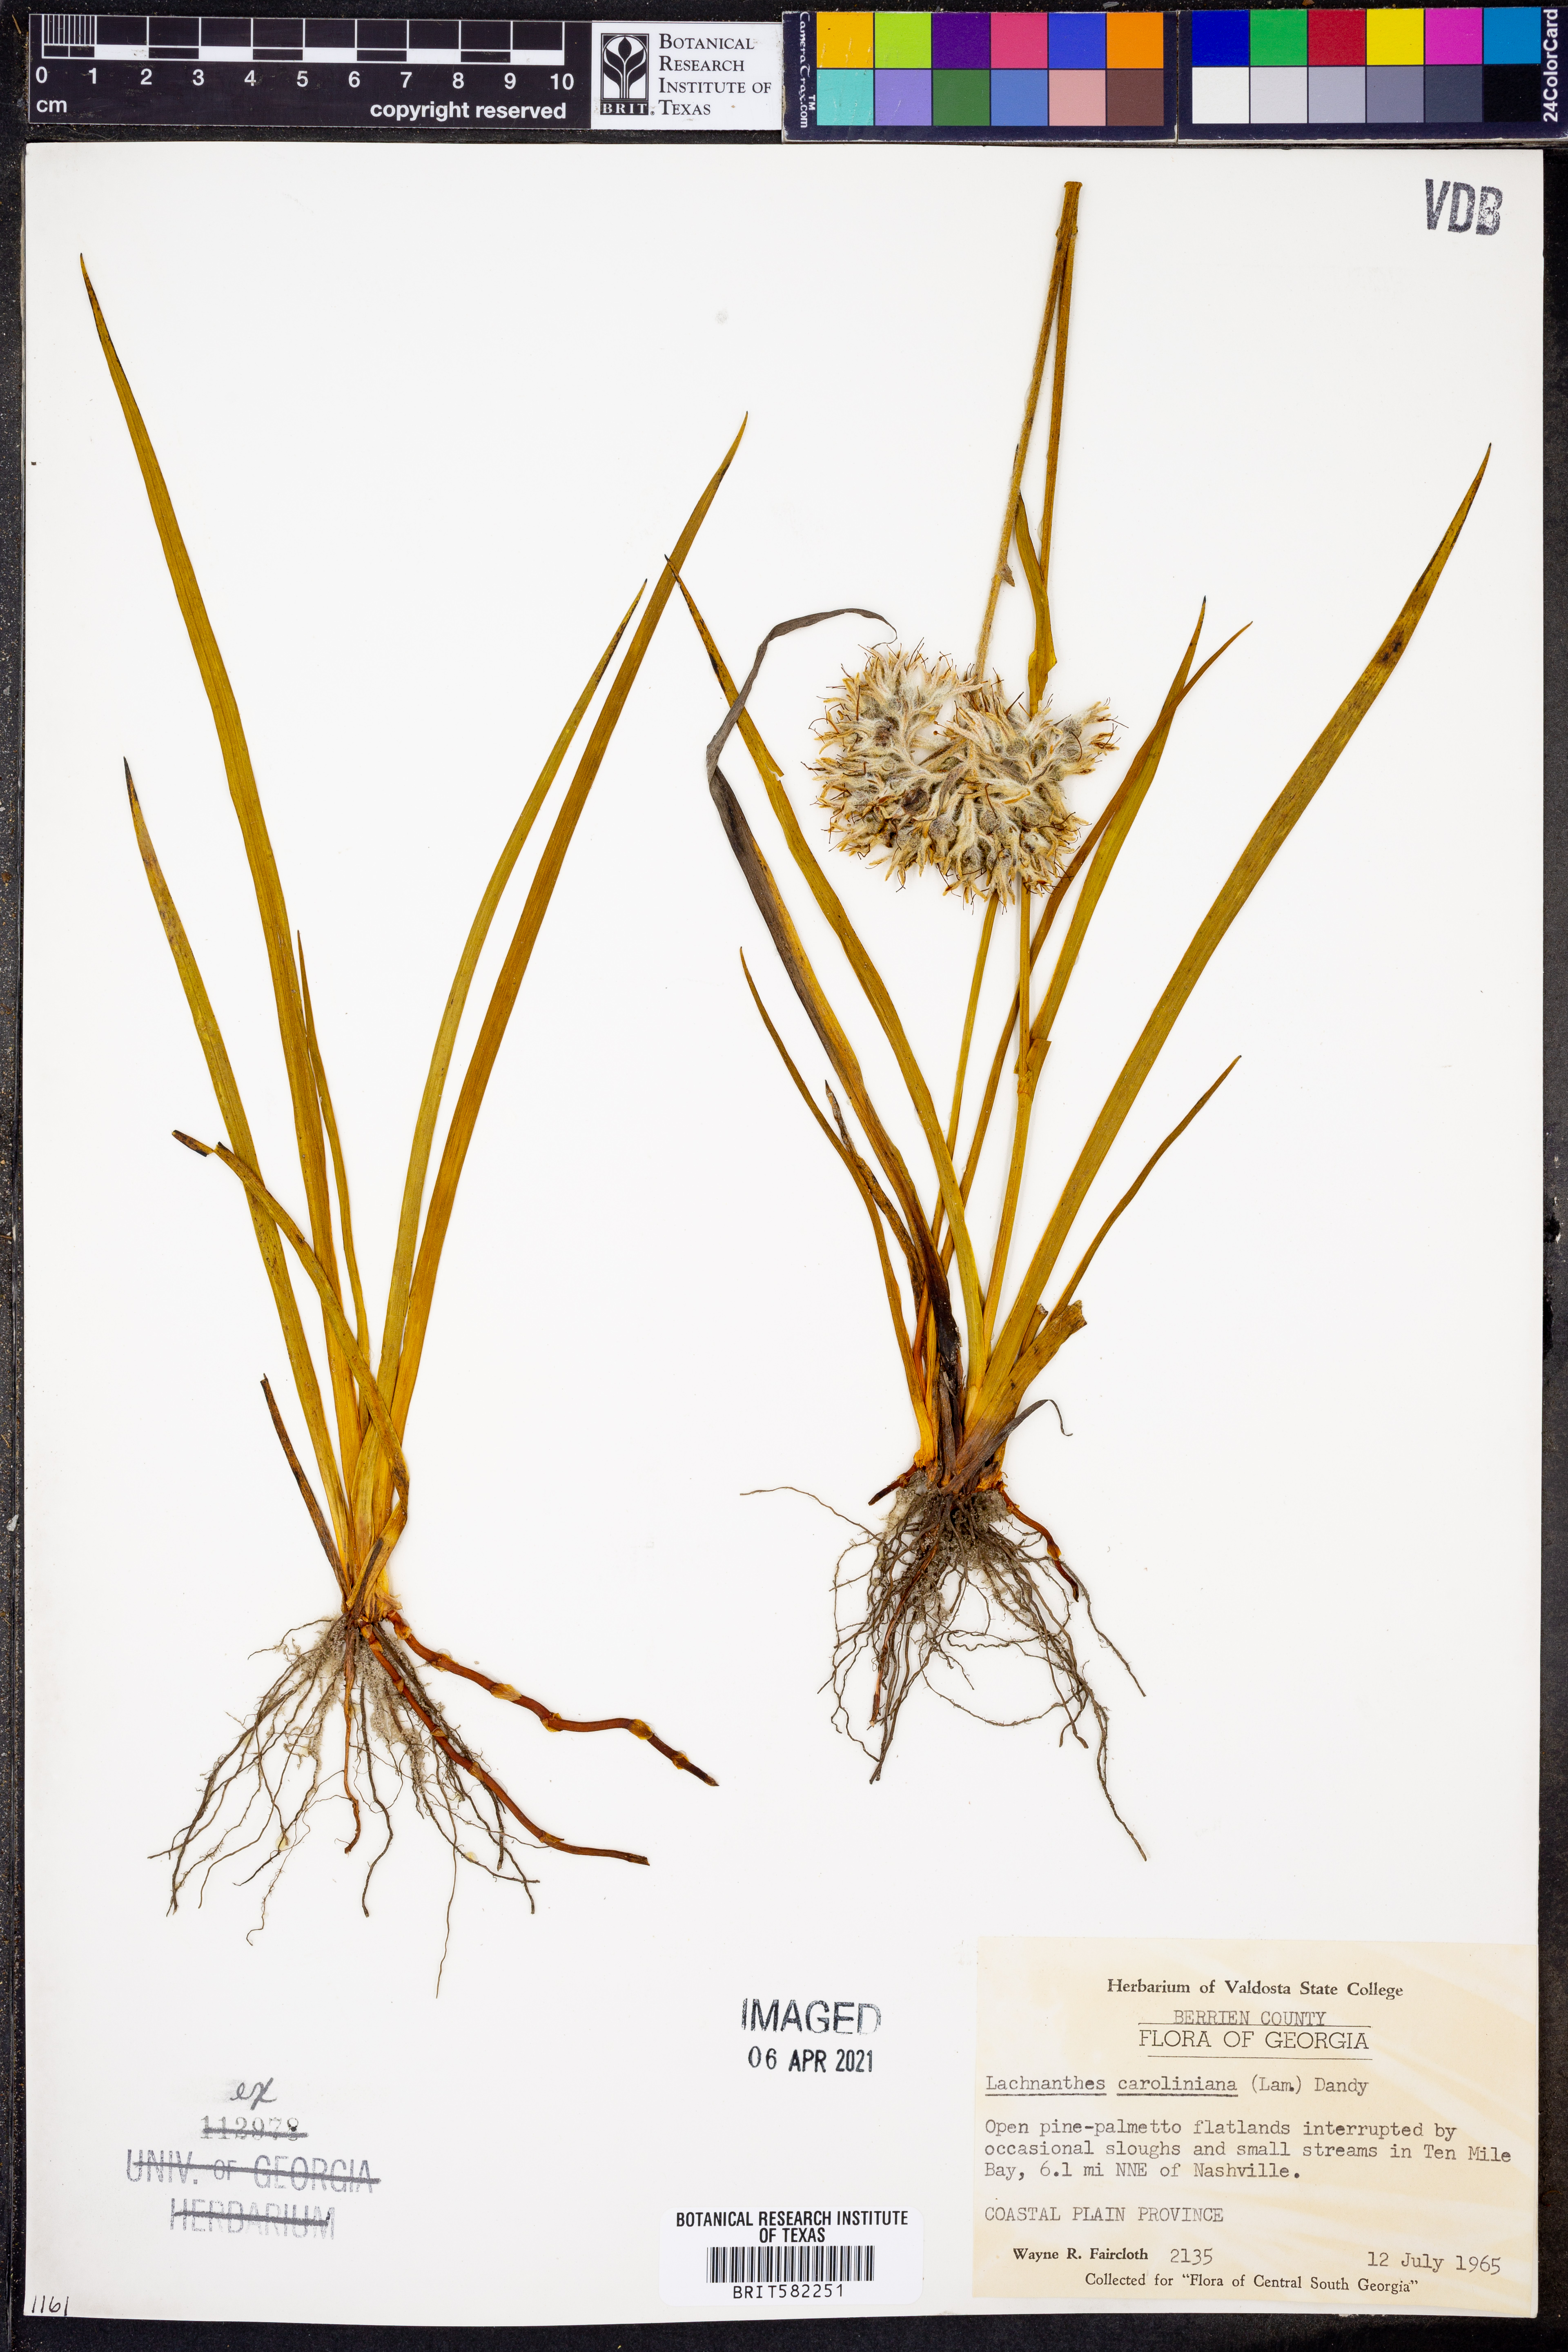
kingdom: Plantae
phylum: Tracheophyta
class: Liliopsida
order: Commelinales
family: Haemodoraceae
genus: Lachnanthes
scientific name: Lachnanthes caroliniana
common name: Carolina redroot
